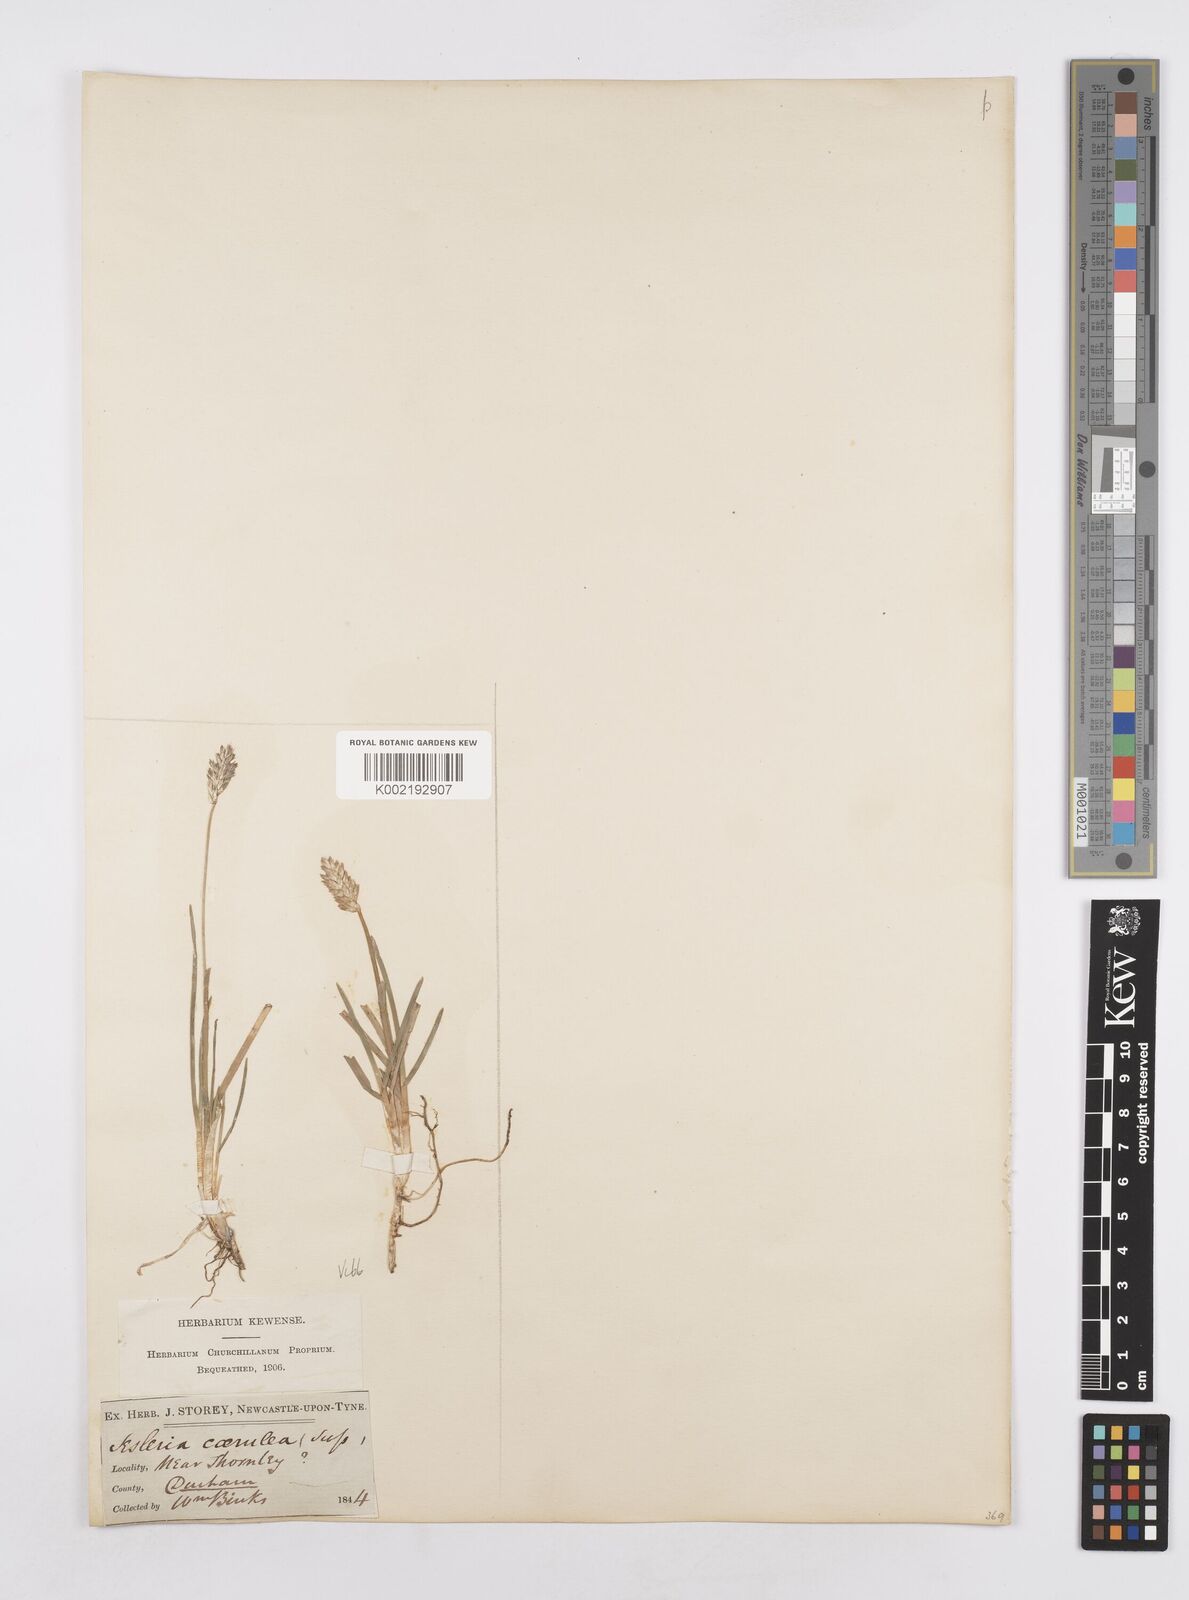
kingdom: Plantae
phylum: Tracheophyta
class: Liliopsida
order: Poales
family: Poaceae
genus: Sesleria
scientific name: Sesleria caerulea
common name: Blue moor-grass
